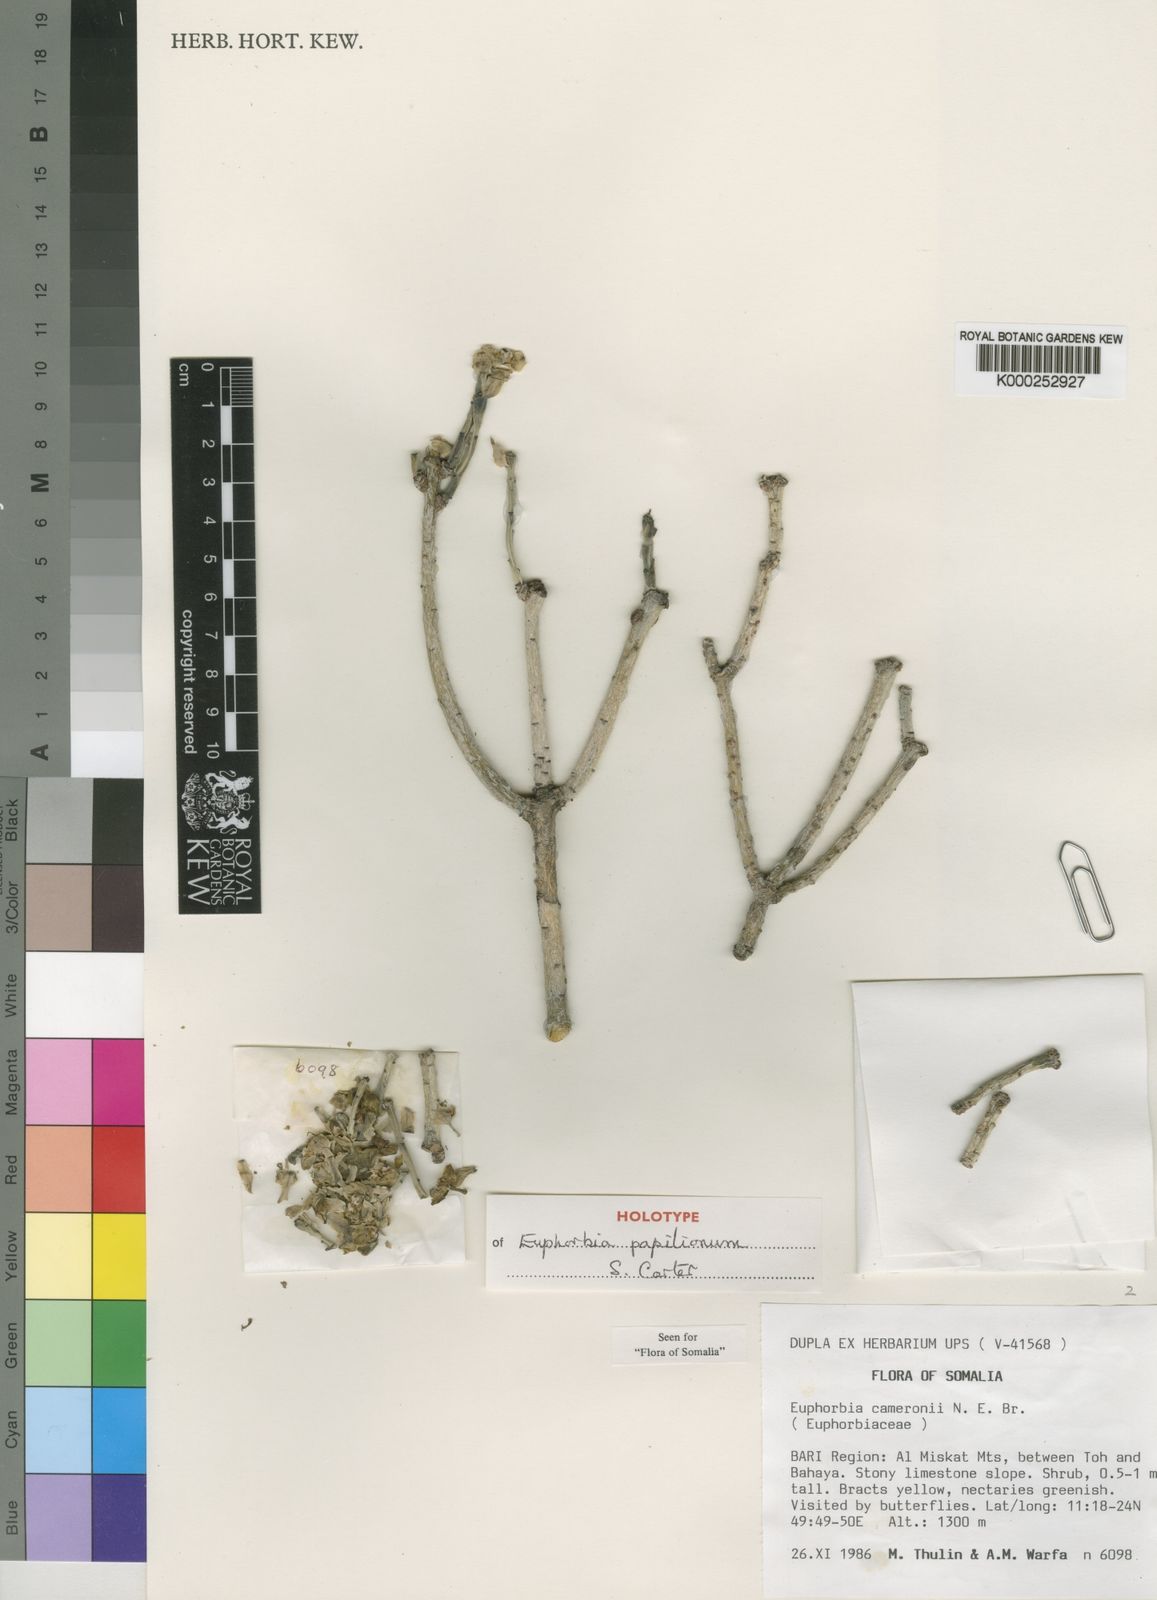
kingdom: Plantae
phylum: Tracheophyta
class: Magnoliopsida
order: Malpighiales
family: Euphorbiaceae
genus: Euphorbia
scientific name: Euphorbia papilionum
